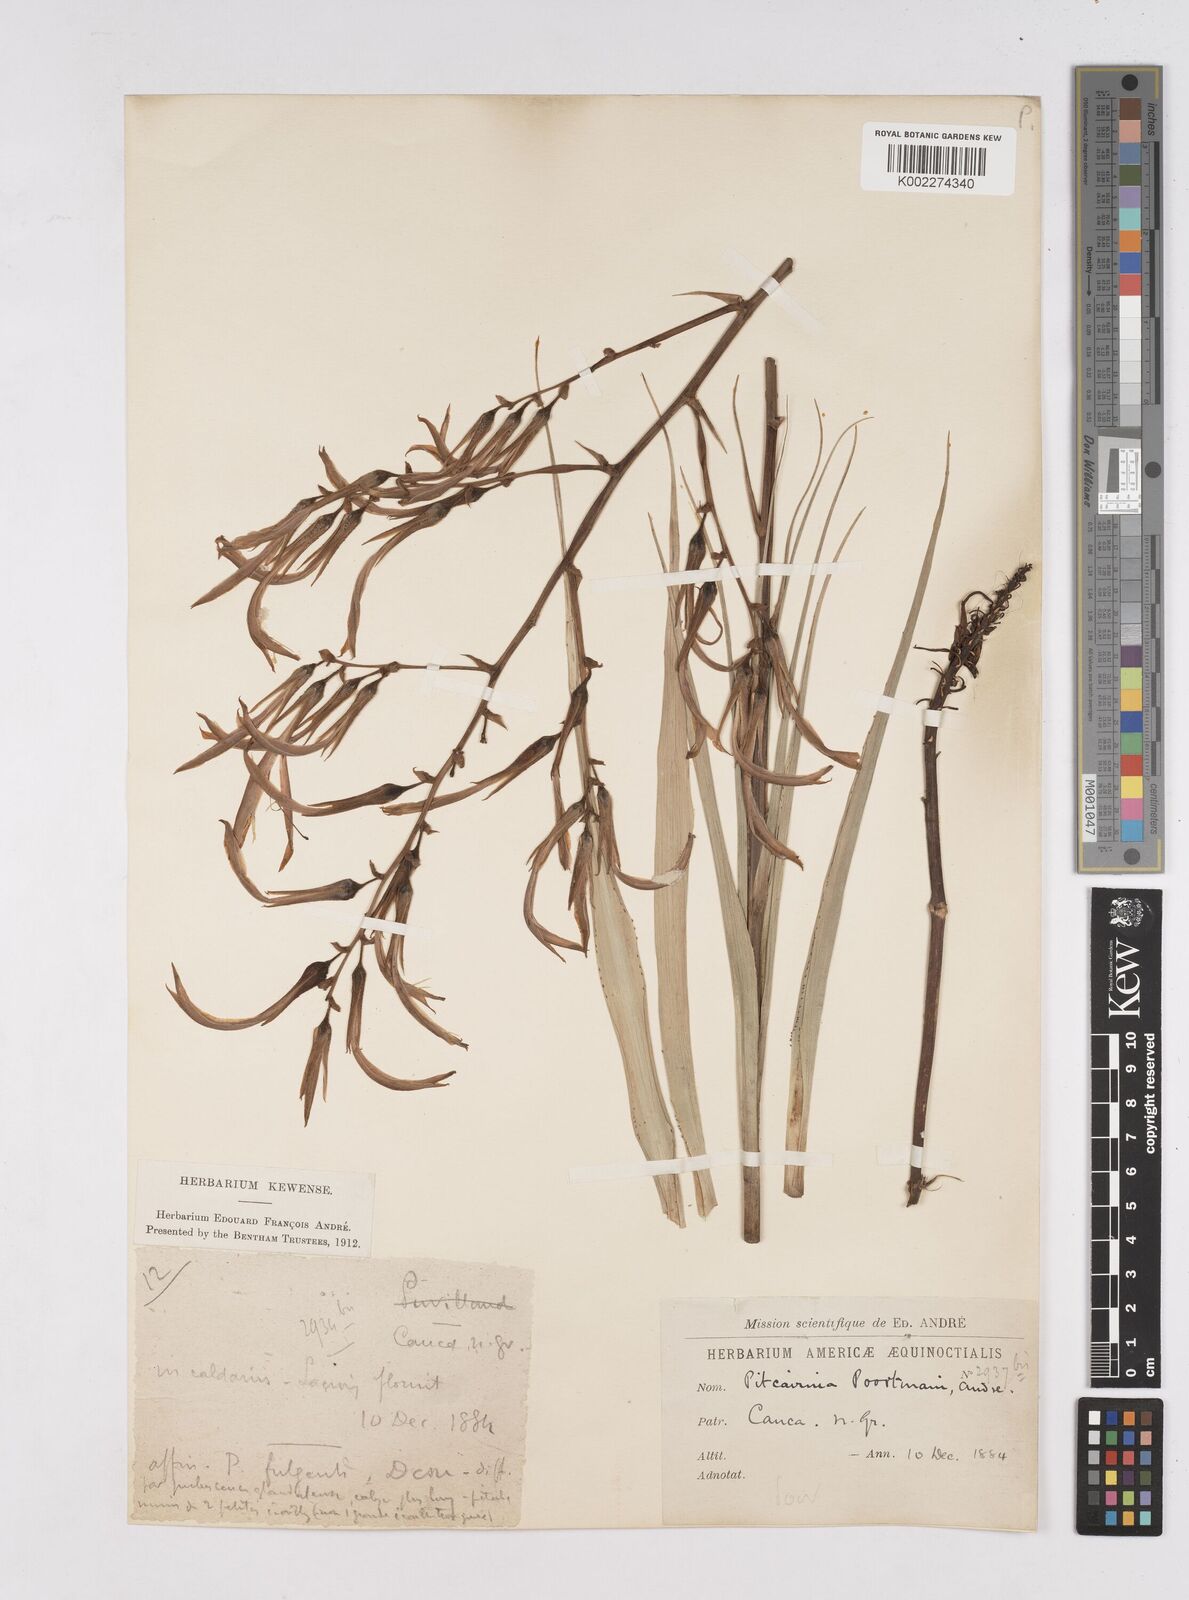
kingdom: Plantae
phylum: Tracheophyta
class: Liliopsida
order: Poales
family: Bromeliaceae
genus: Pitcairnia
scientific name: Pitcairnia poortmanii
